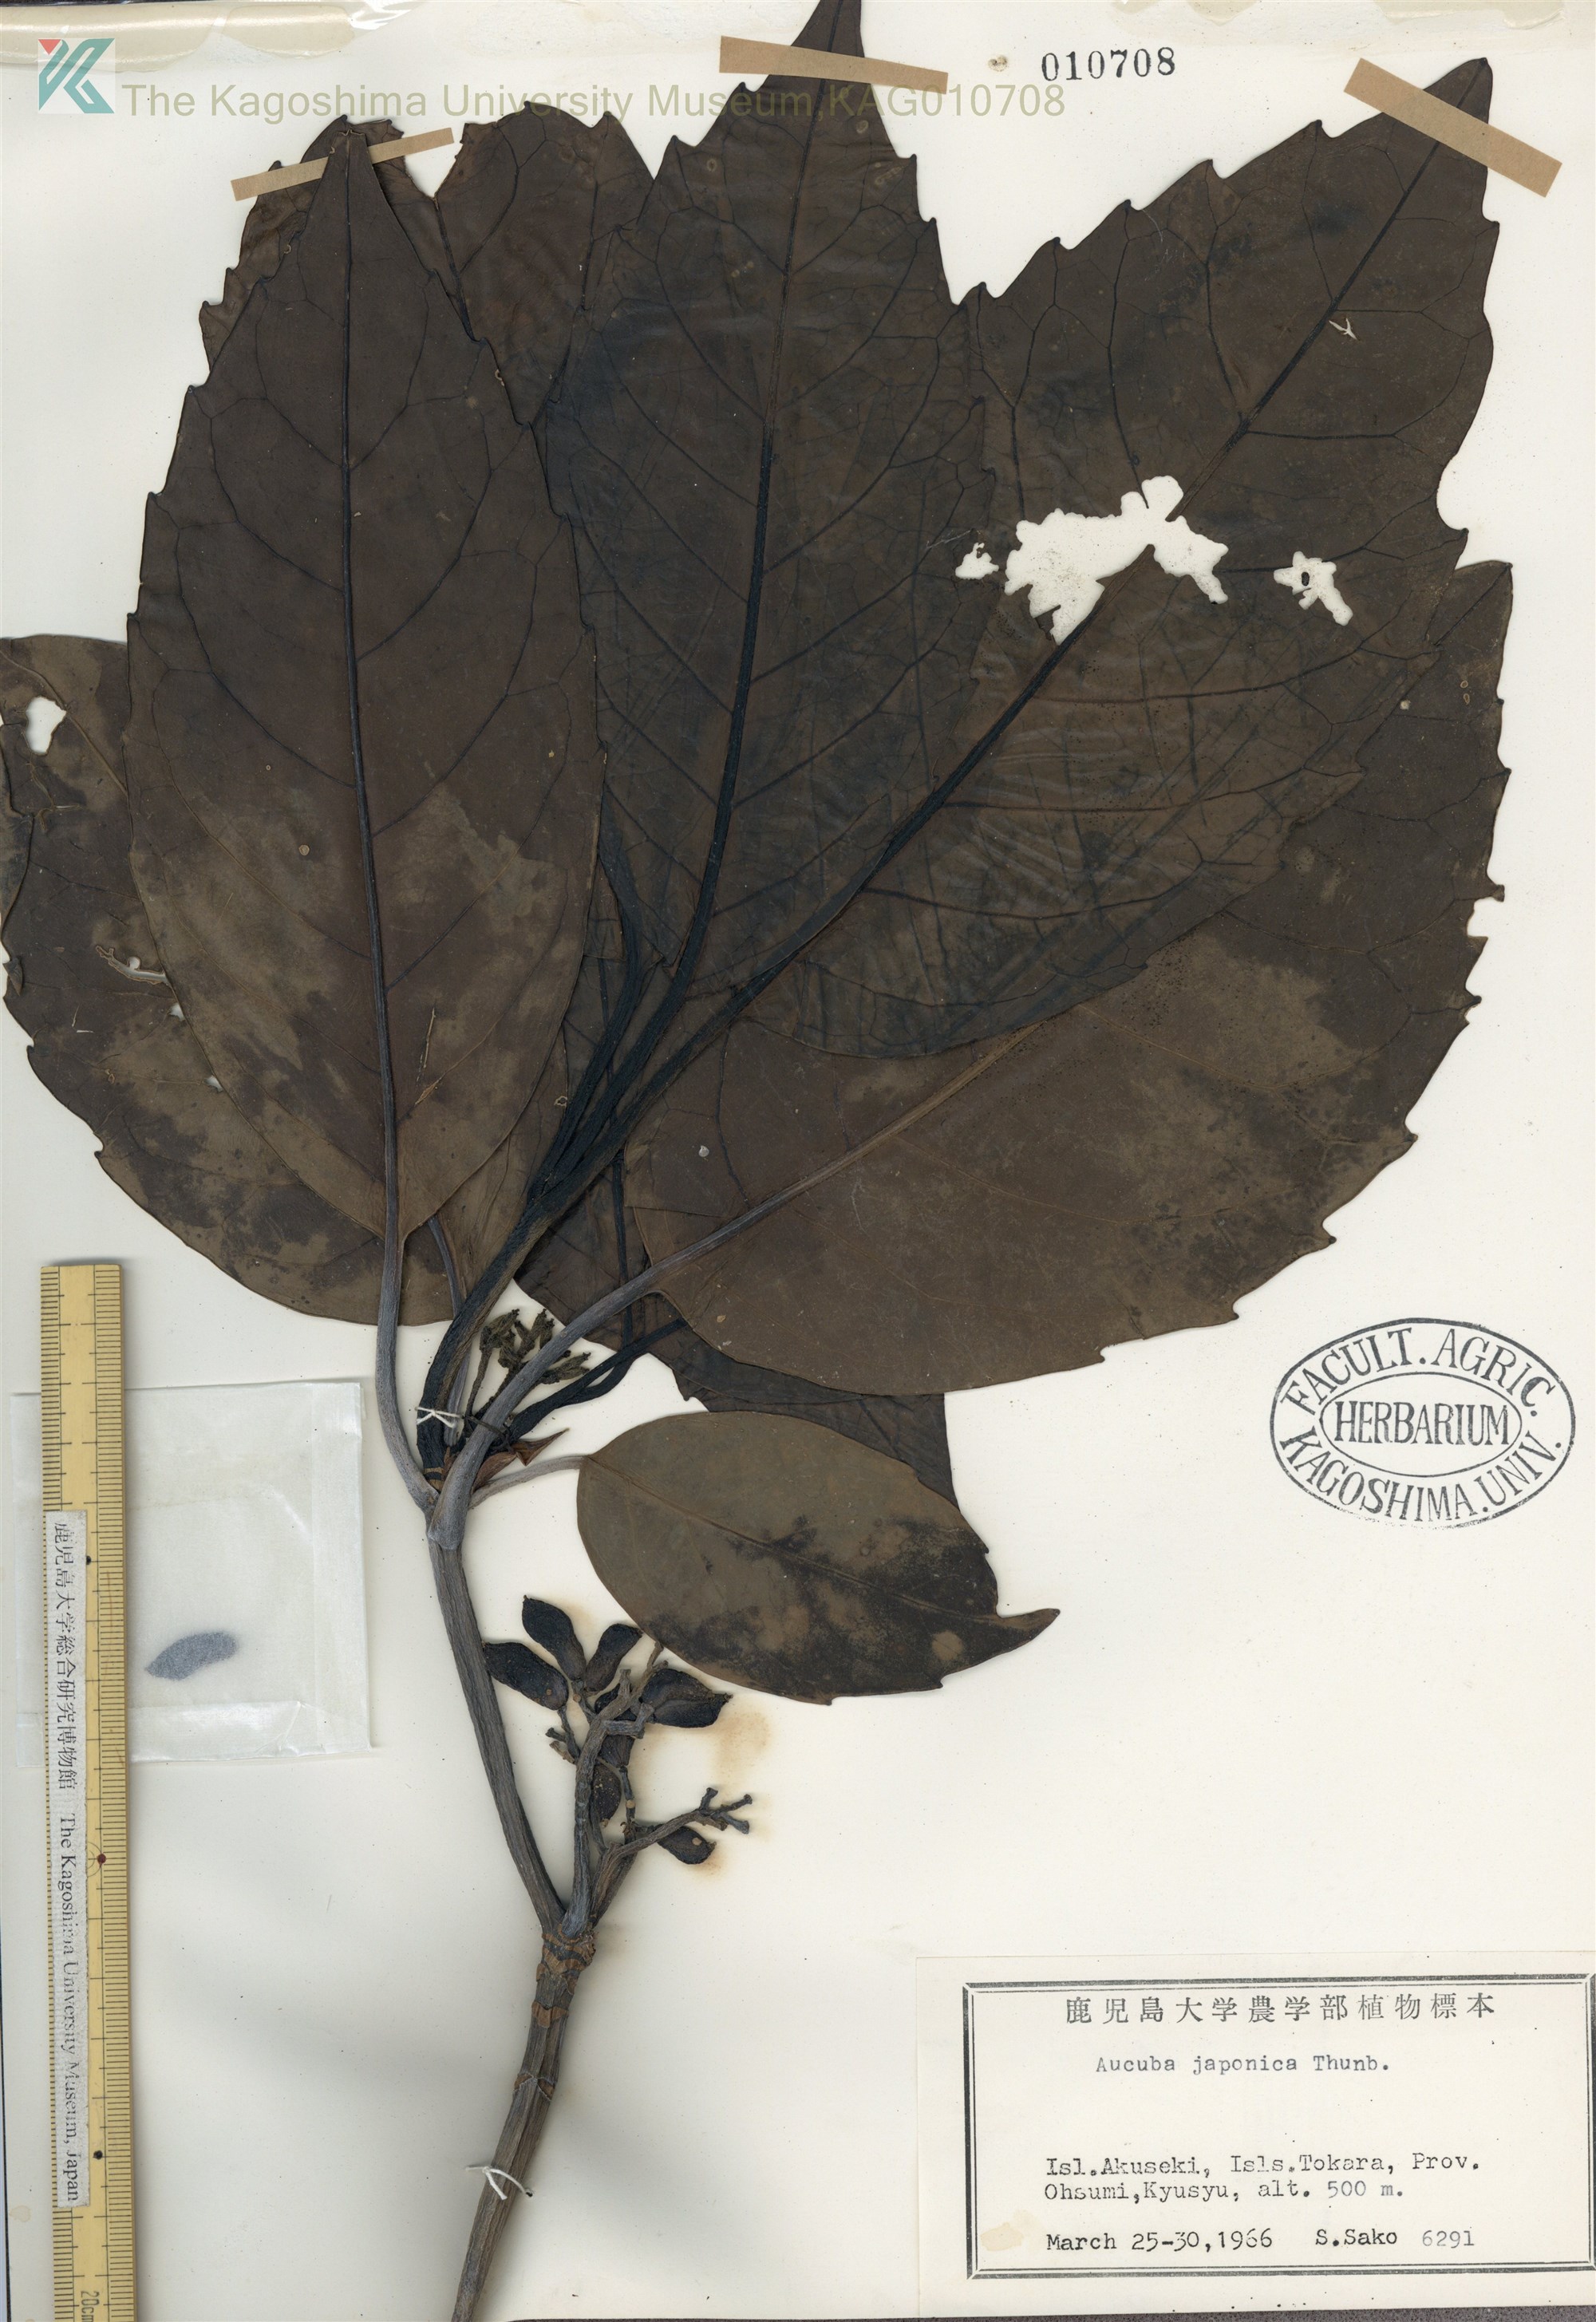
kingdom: Plantae
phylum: Tracheophyta
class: Magnoliopsida
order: Garryales
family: Garryaceae
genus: Aucuba
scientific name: Aucuba japonica
